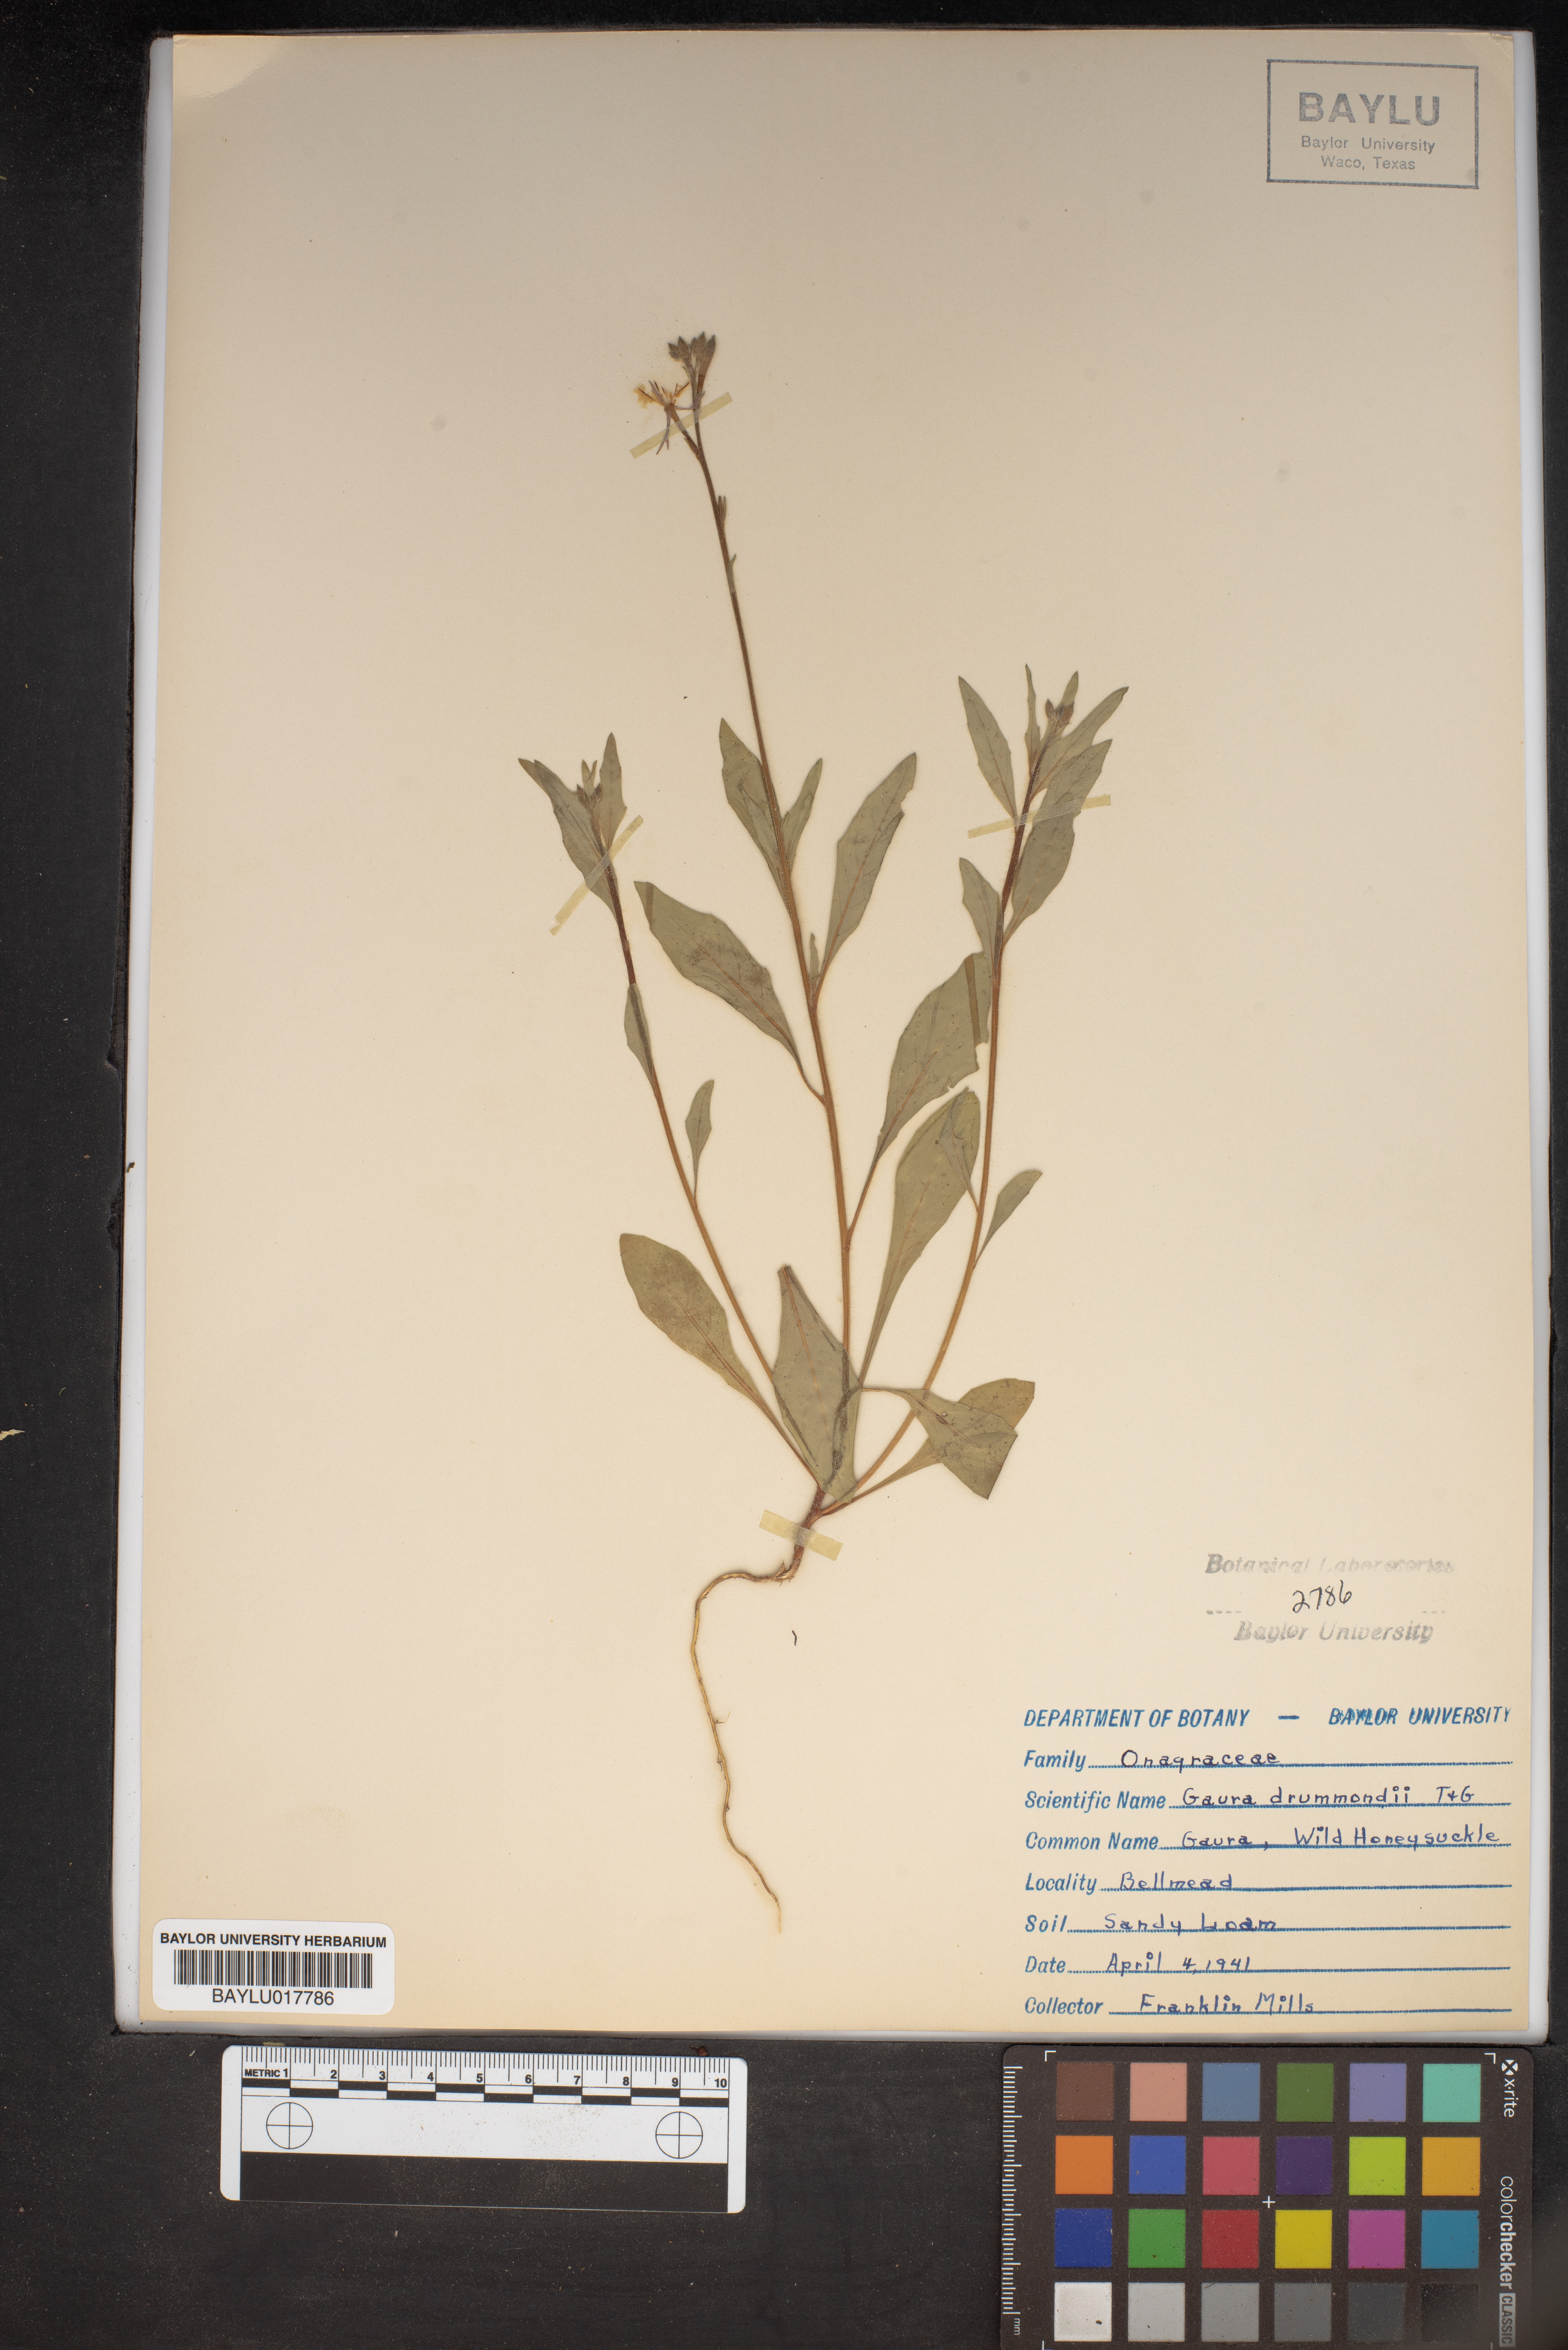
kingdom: Plantae
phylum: Tracheophyta
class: Magnoliopsida
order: Myrtales
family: Onagraceae
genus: Oenothera
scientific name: Oenothera hispida
